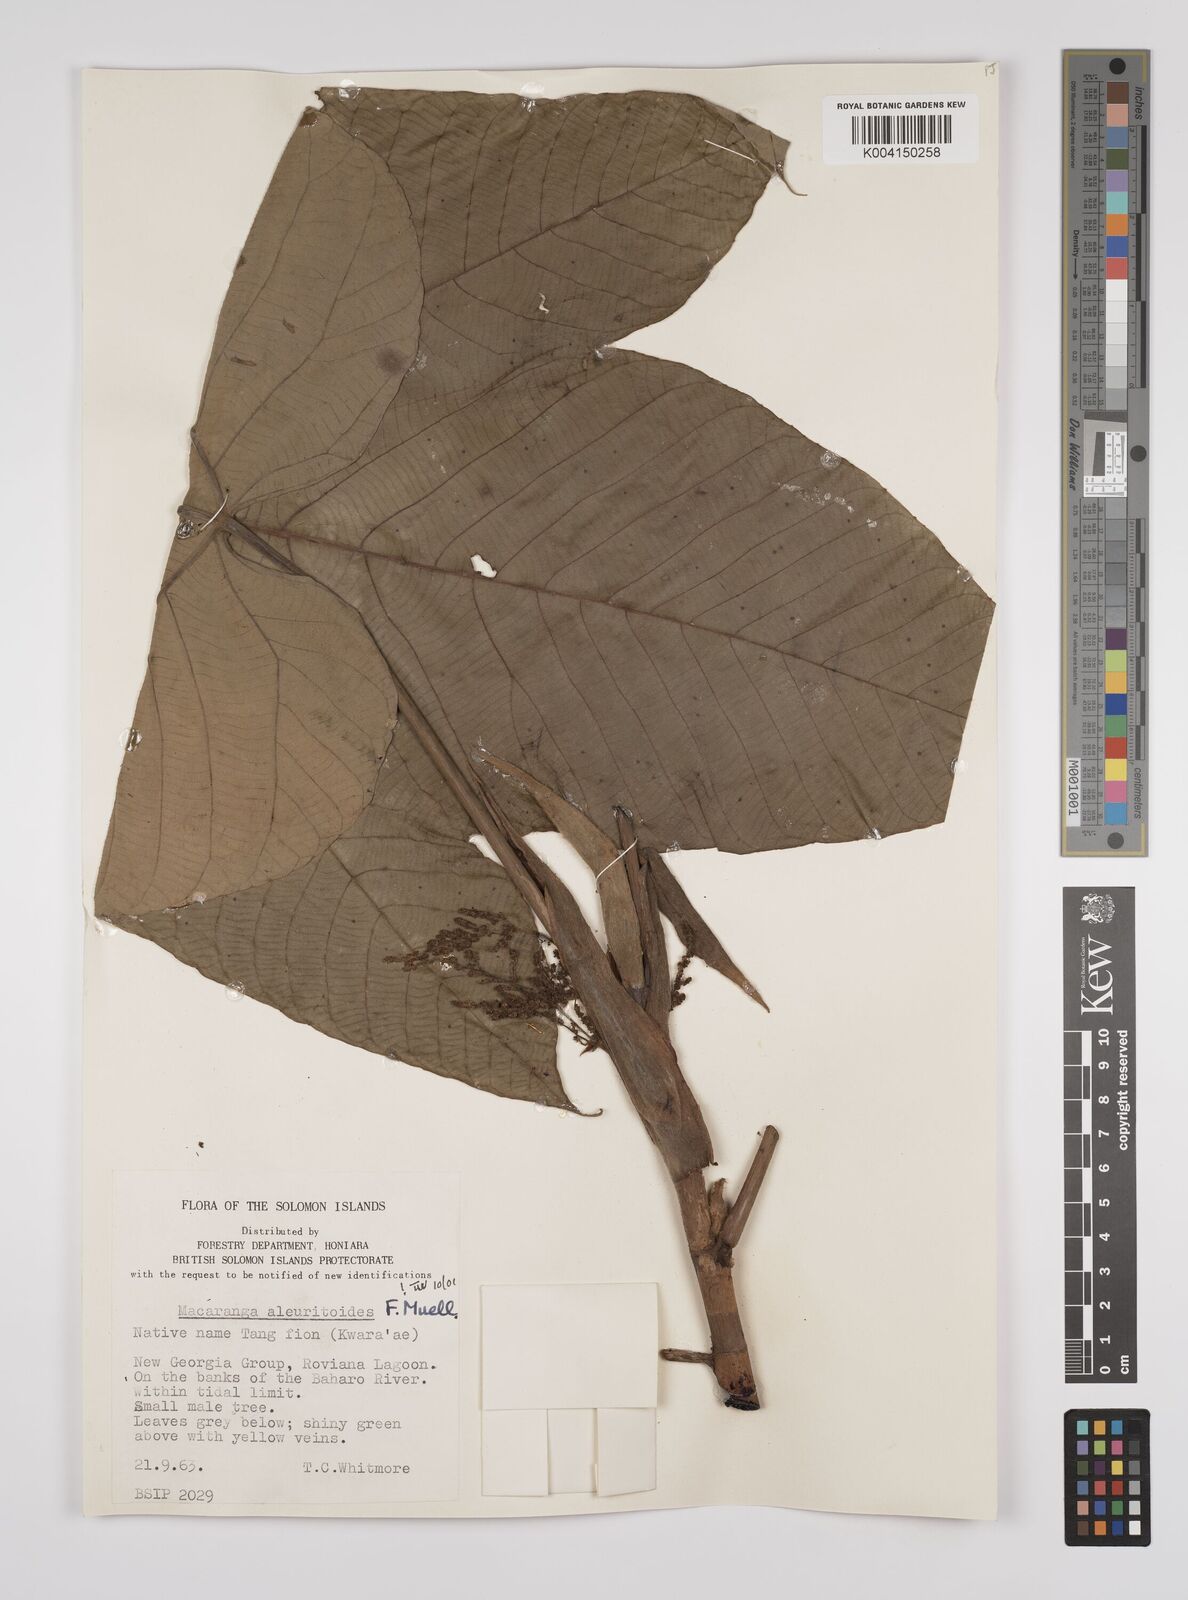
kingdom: Plantae
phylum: Tracheophyta
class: Magnoliopsida
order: Malpighiales
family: Euphorbiaceae
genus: Macaranga
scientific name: Macaranga aleuritoides
